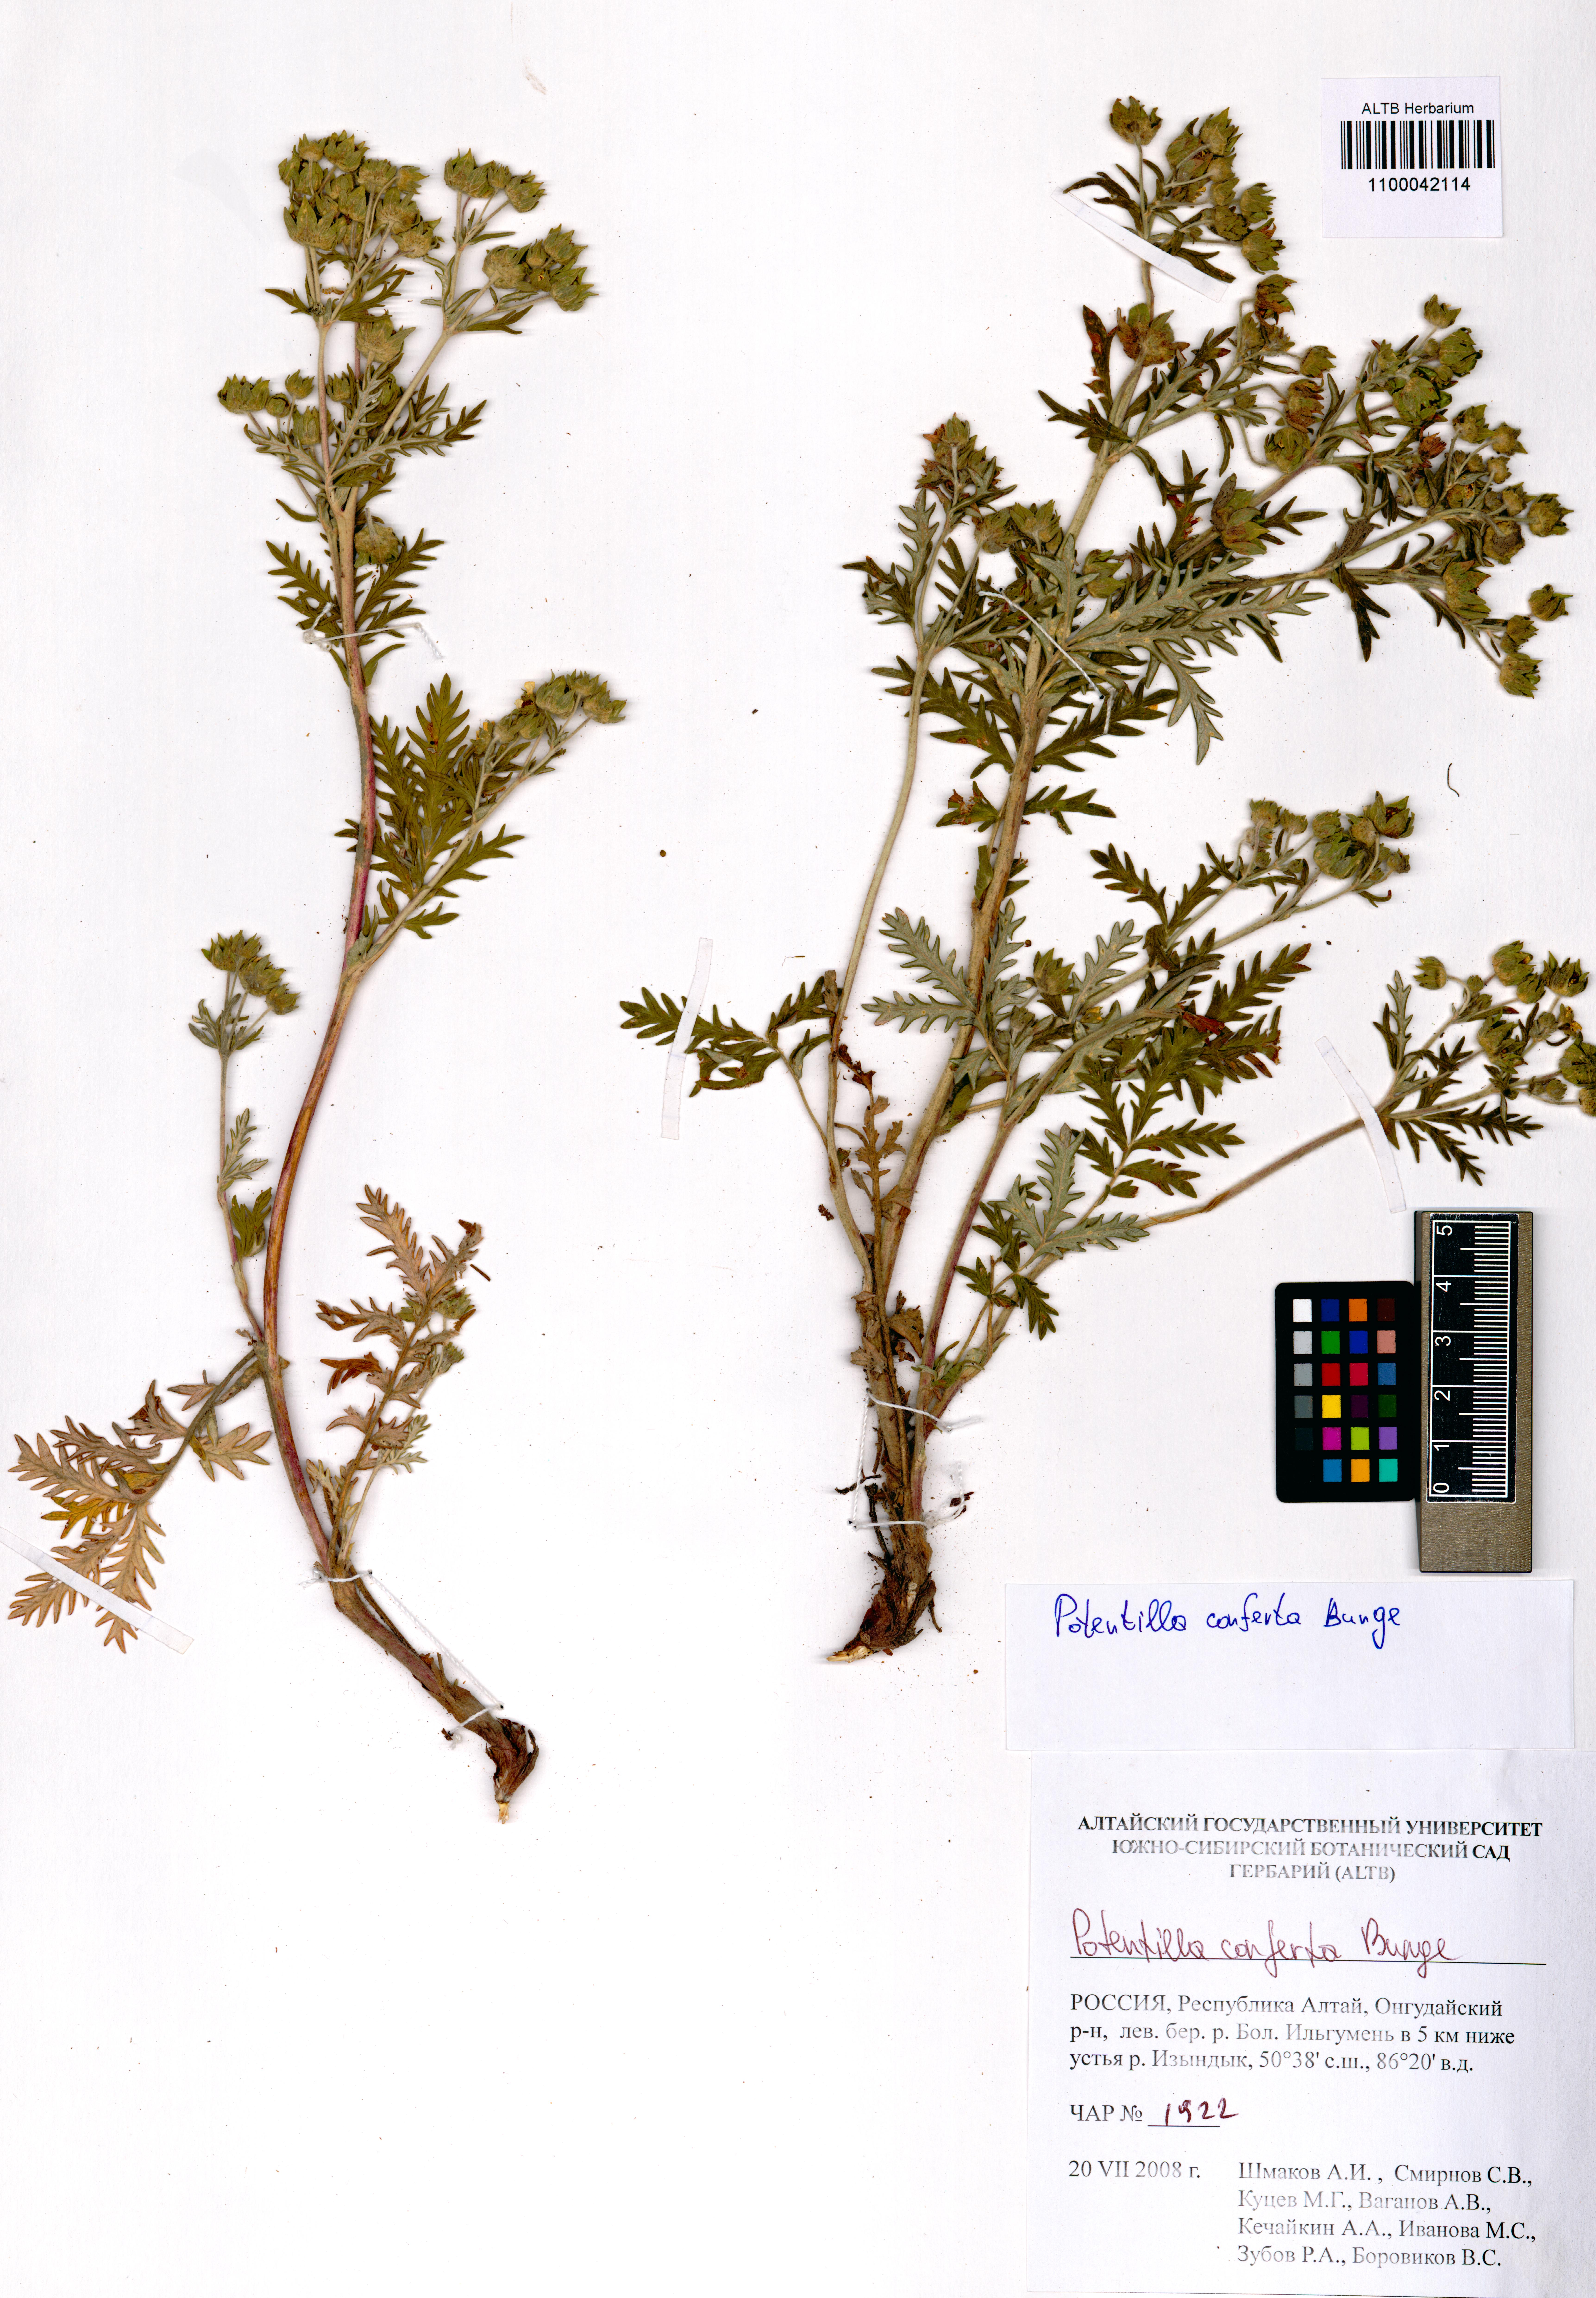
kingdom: Plantae
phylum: Tracheophyta
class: Magnoliopsida
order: Rosales
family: Rosaceae
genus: Potentilla
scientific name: Potentilla conferta
